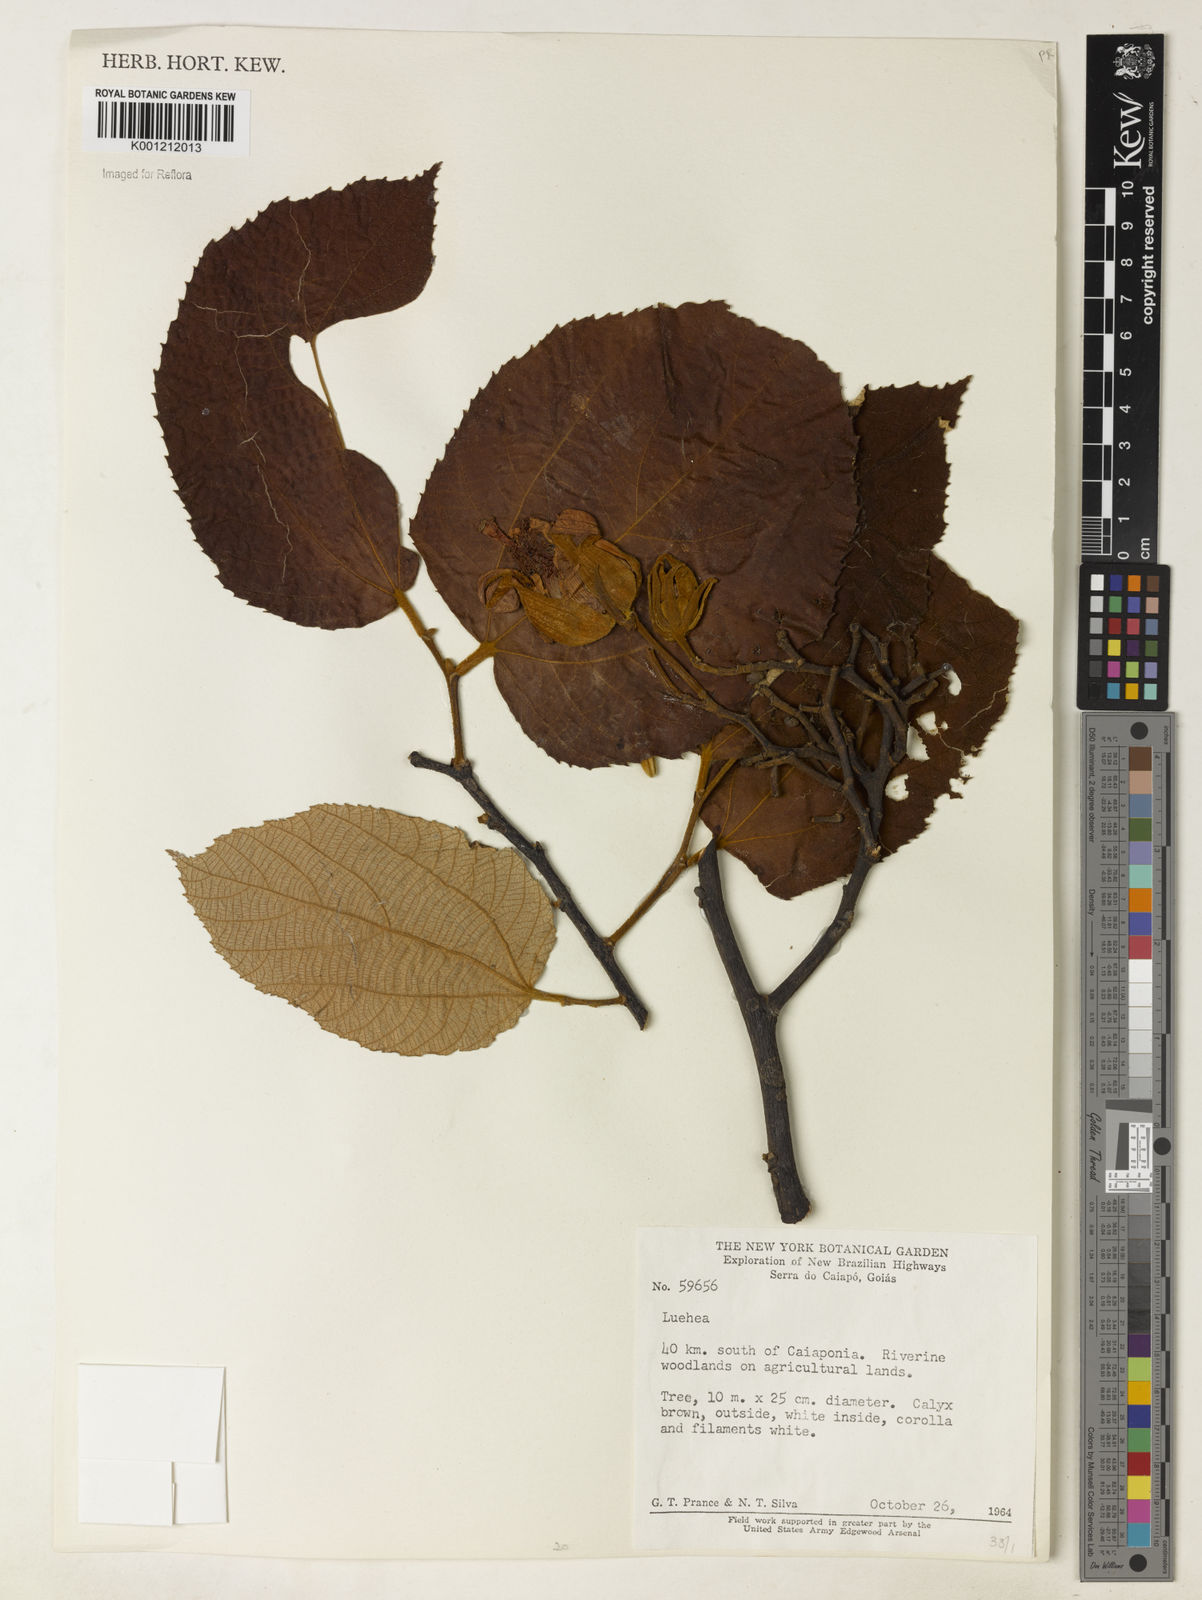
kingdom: Plantae
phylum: Tracheophyta
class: Magnoliopsida
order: Malvales
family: Malvaceae
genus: Luehea
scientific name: Luehea
